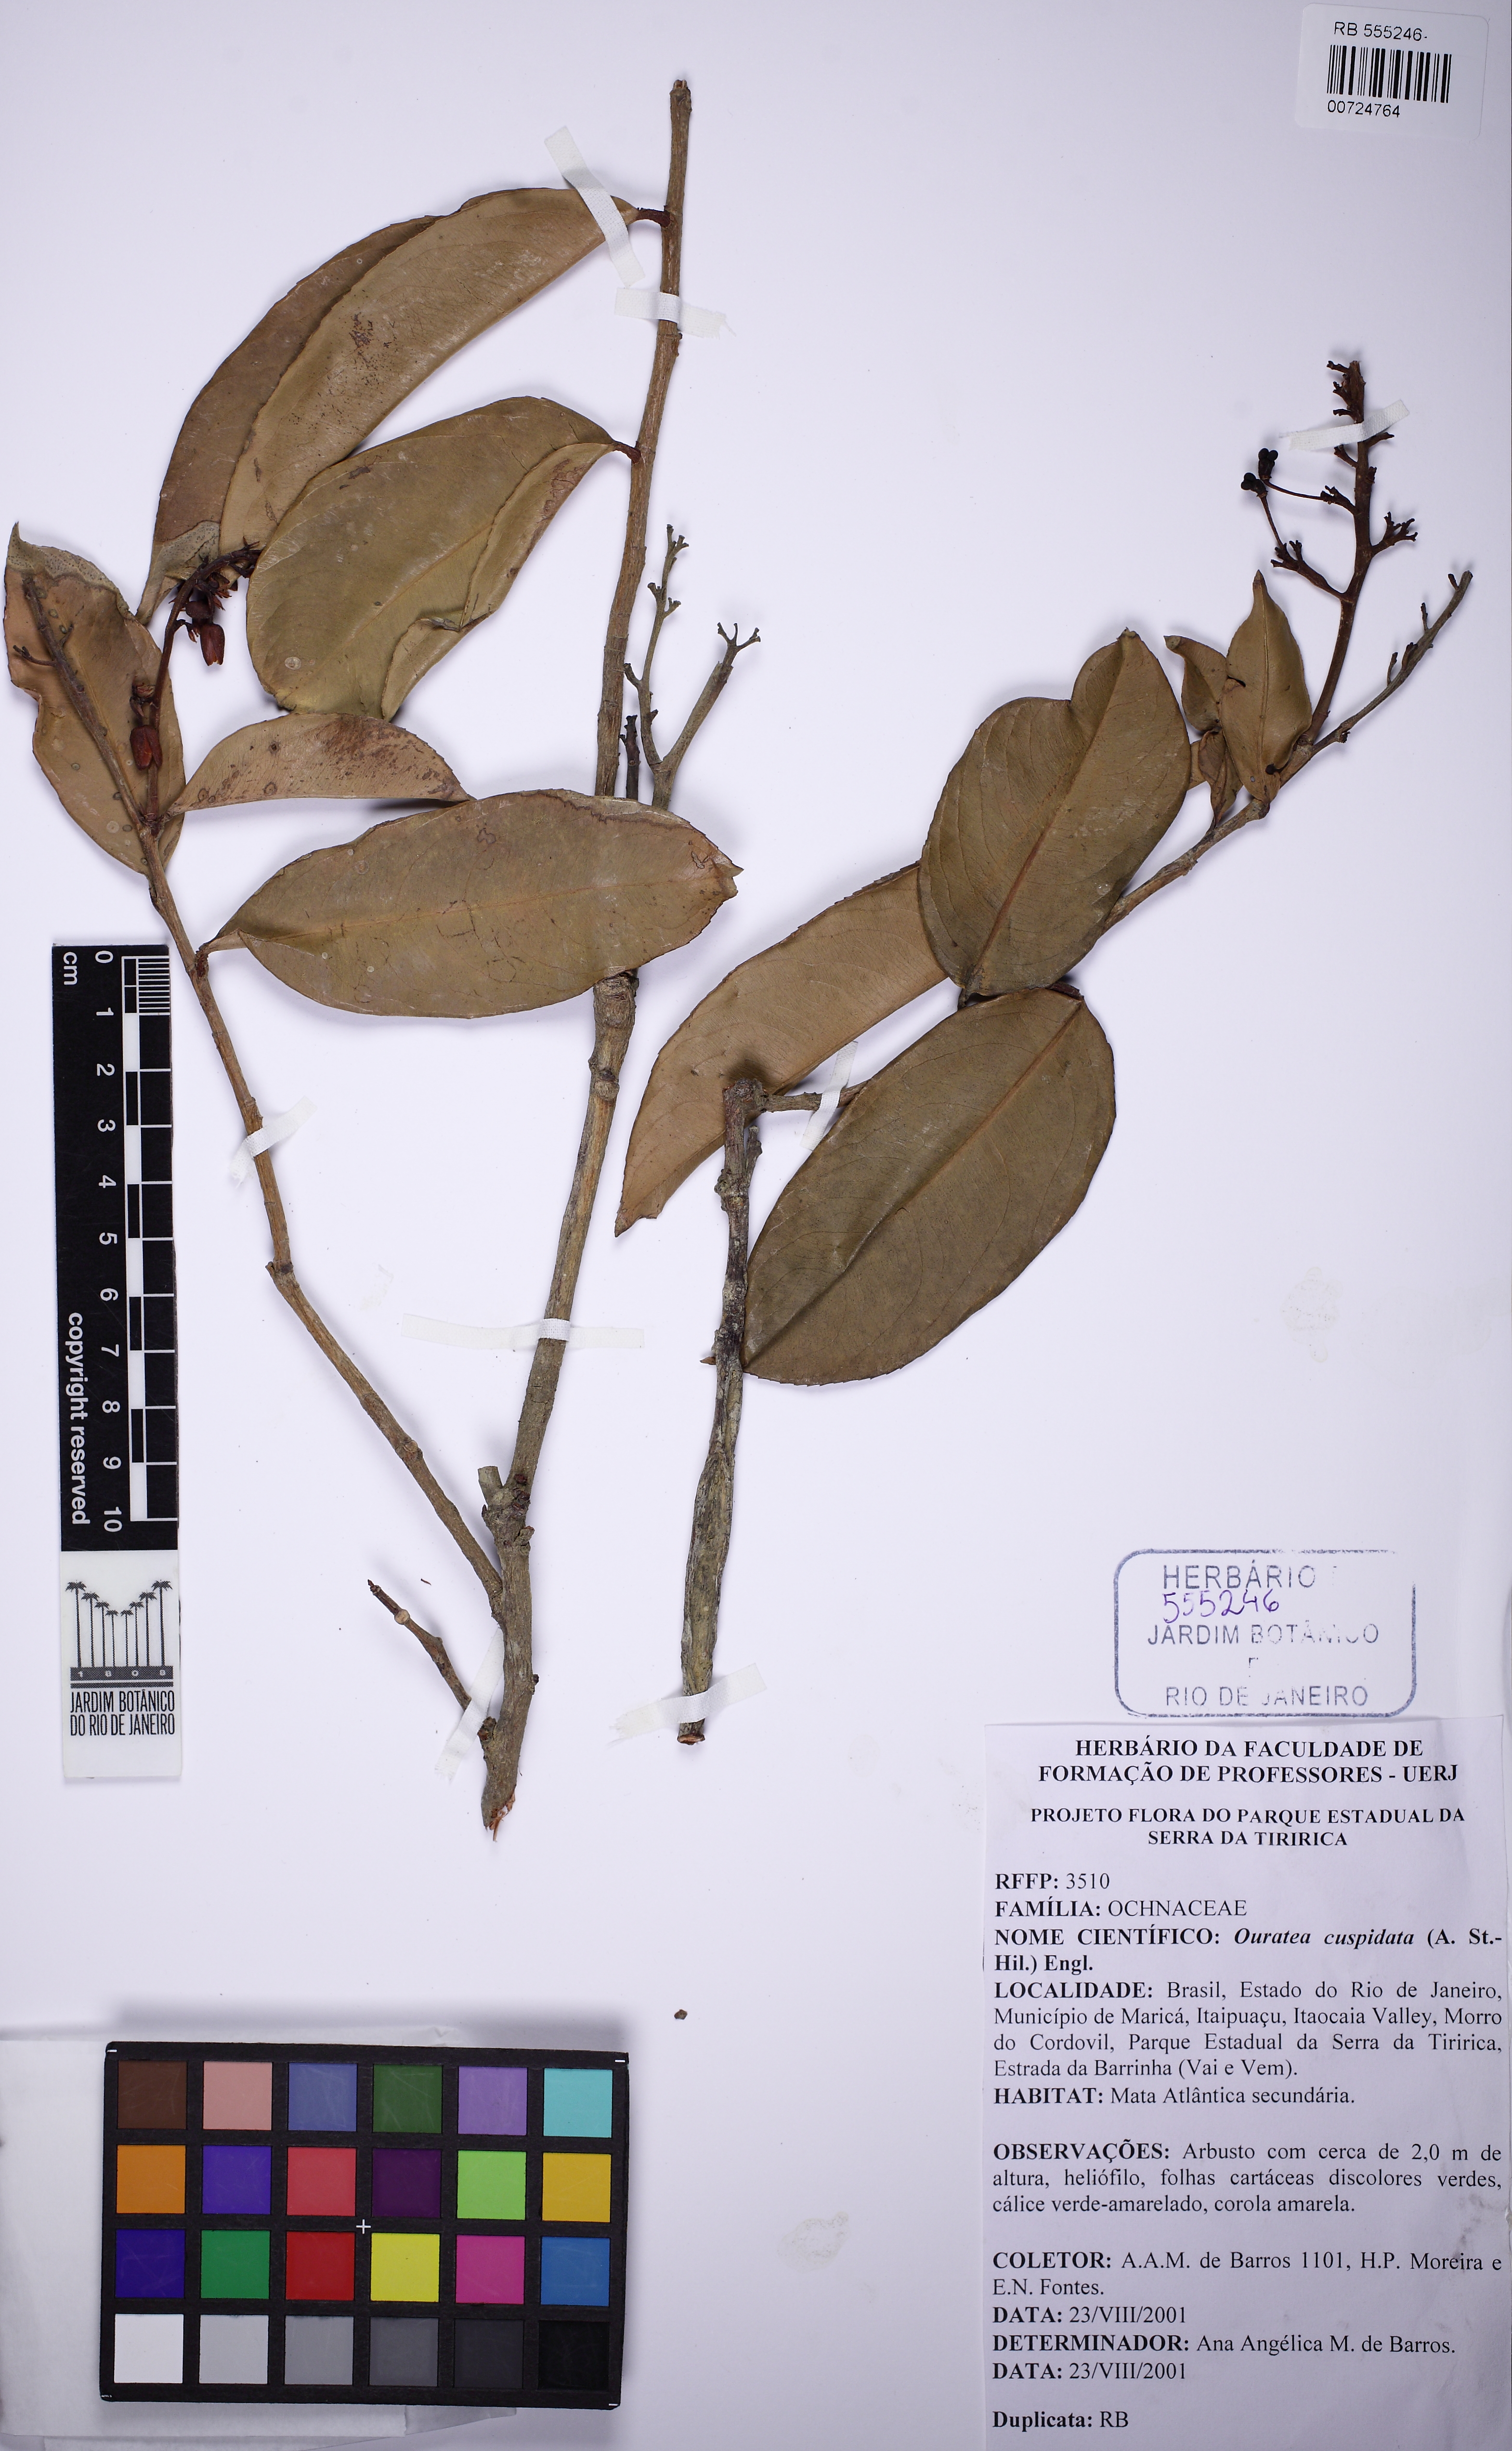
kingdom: Plantae
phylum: Tracheophyta
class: Magnoliopsida
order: Malpighiales
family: Ochnaceae
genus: Ouratea
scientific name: Ouratea cuspidata
